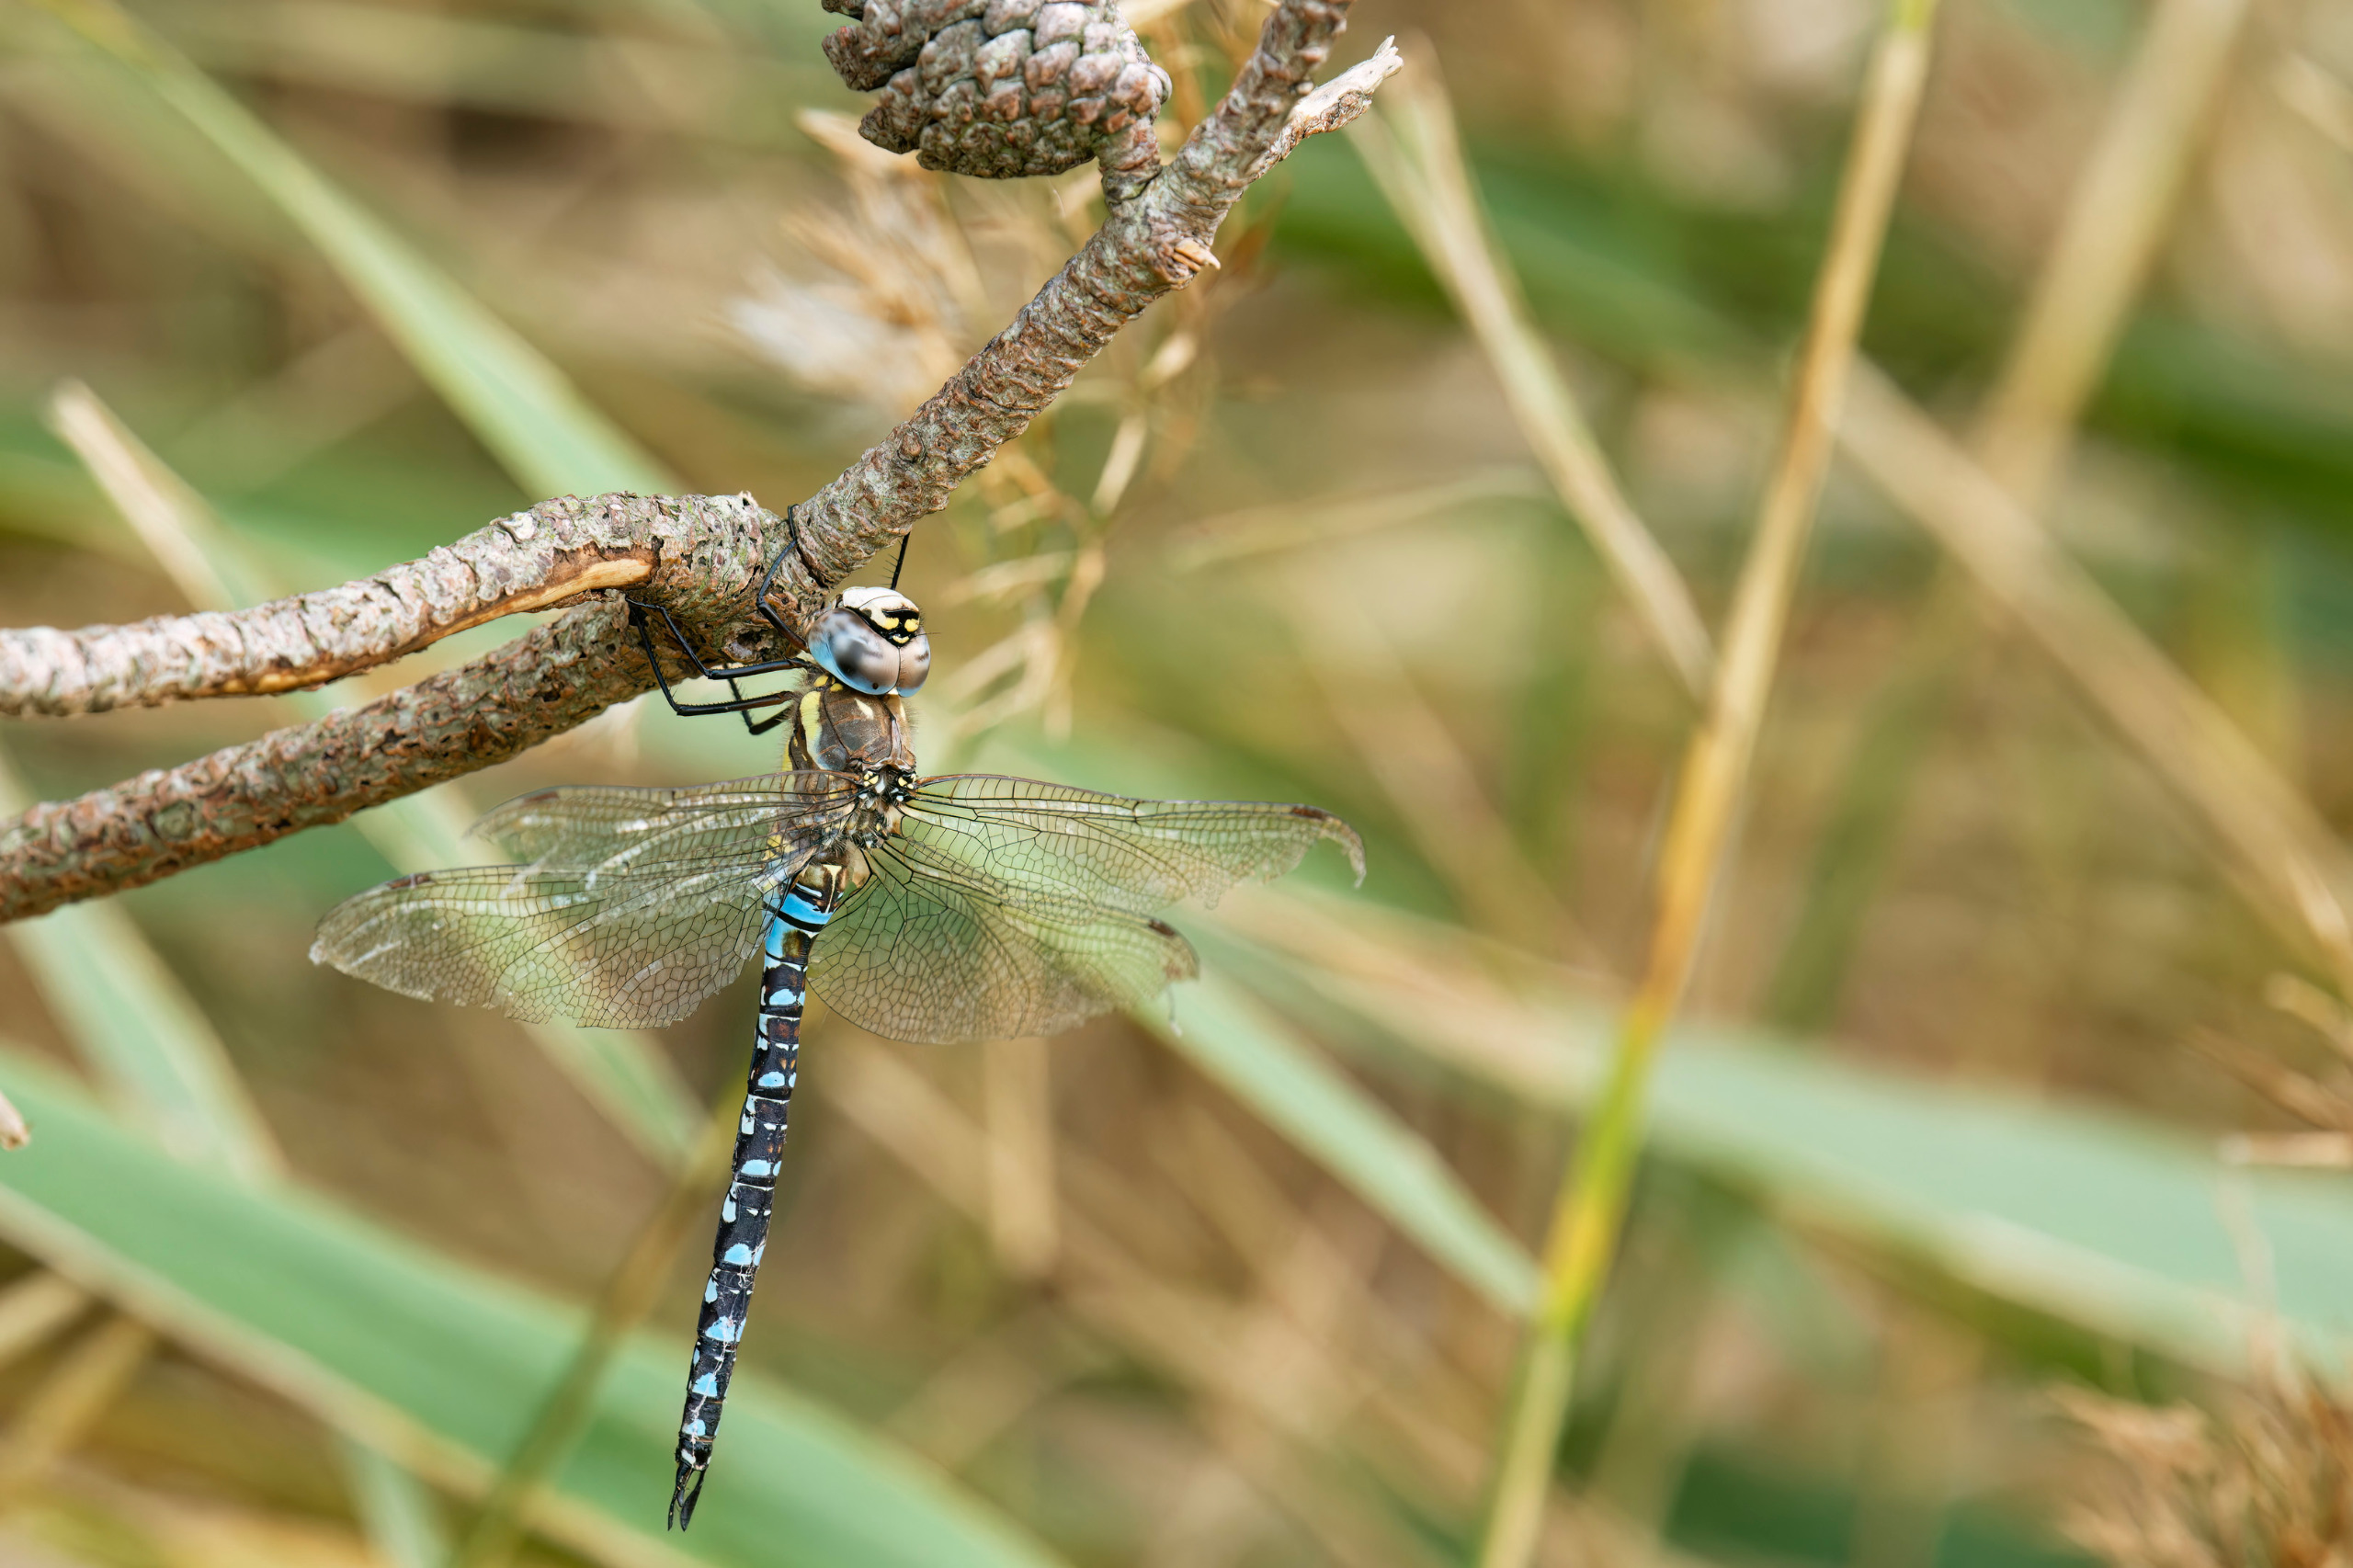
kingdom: Animalia
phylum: Arthropoda
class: Insecta
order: Odonata
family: Aeshnidae
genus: Aeshna
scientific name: Aeshna mixta
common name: Efterårs-mosaikguldsmed
